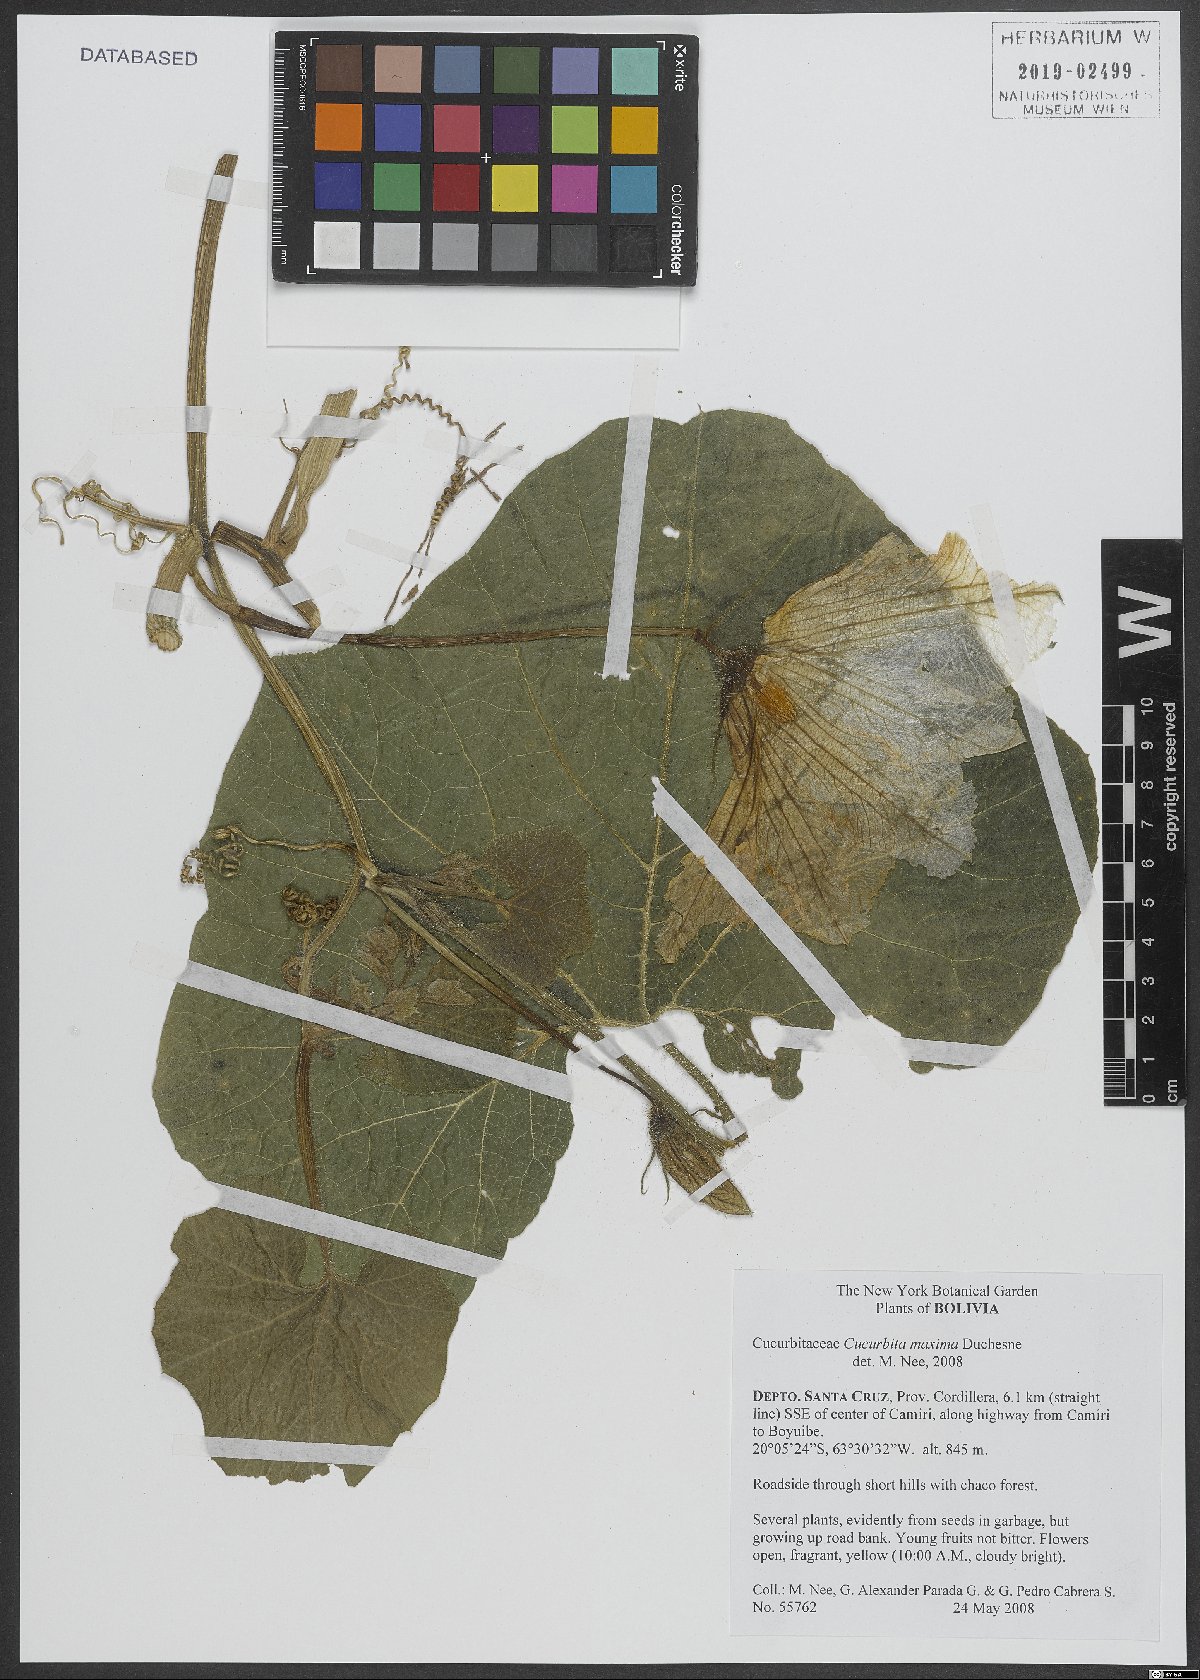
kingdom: Plantae
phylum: Tracheophyta
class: Magnoliopsida
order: Cucurbitales
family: Cucurbitaceae
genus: Cucurbita
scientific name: Cucurbita maxima
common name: Pumpkin
